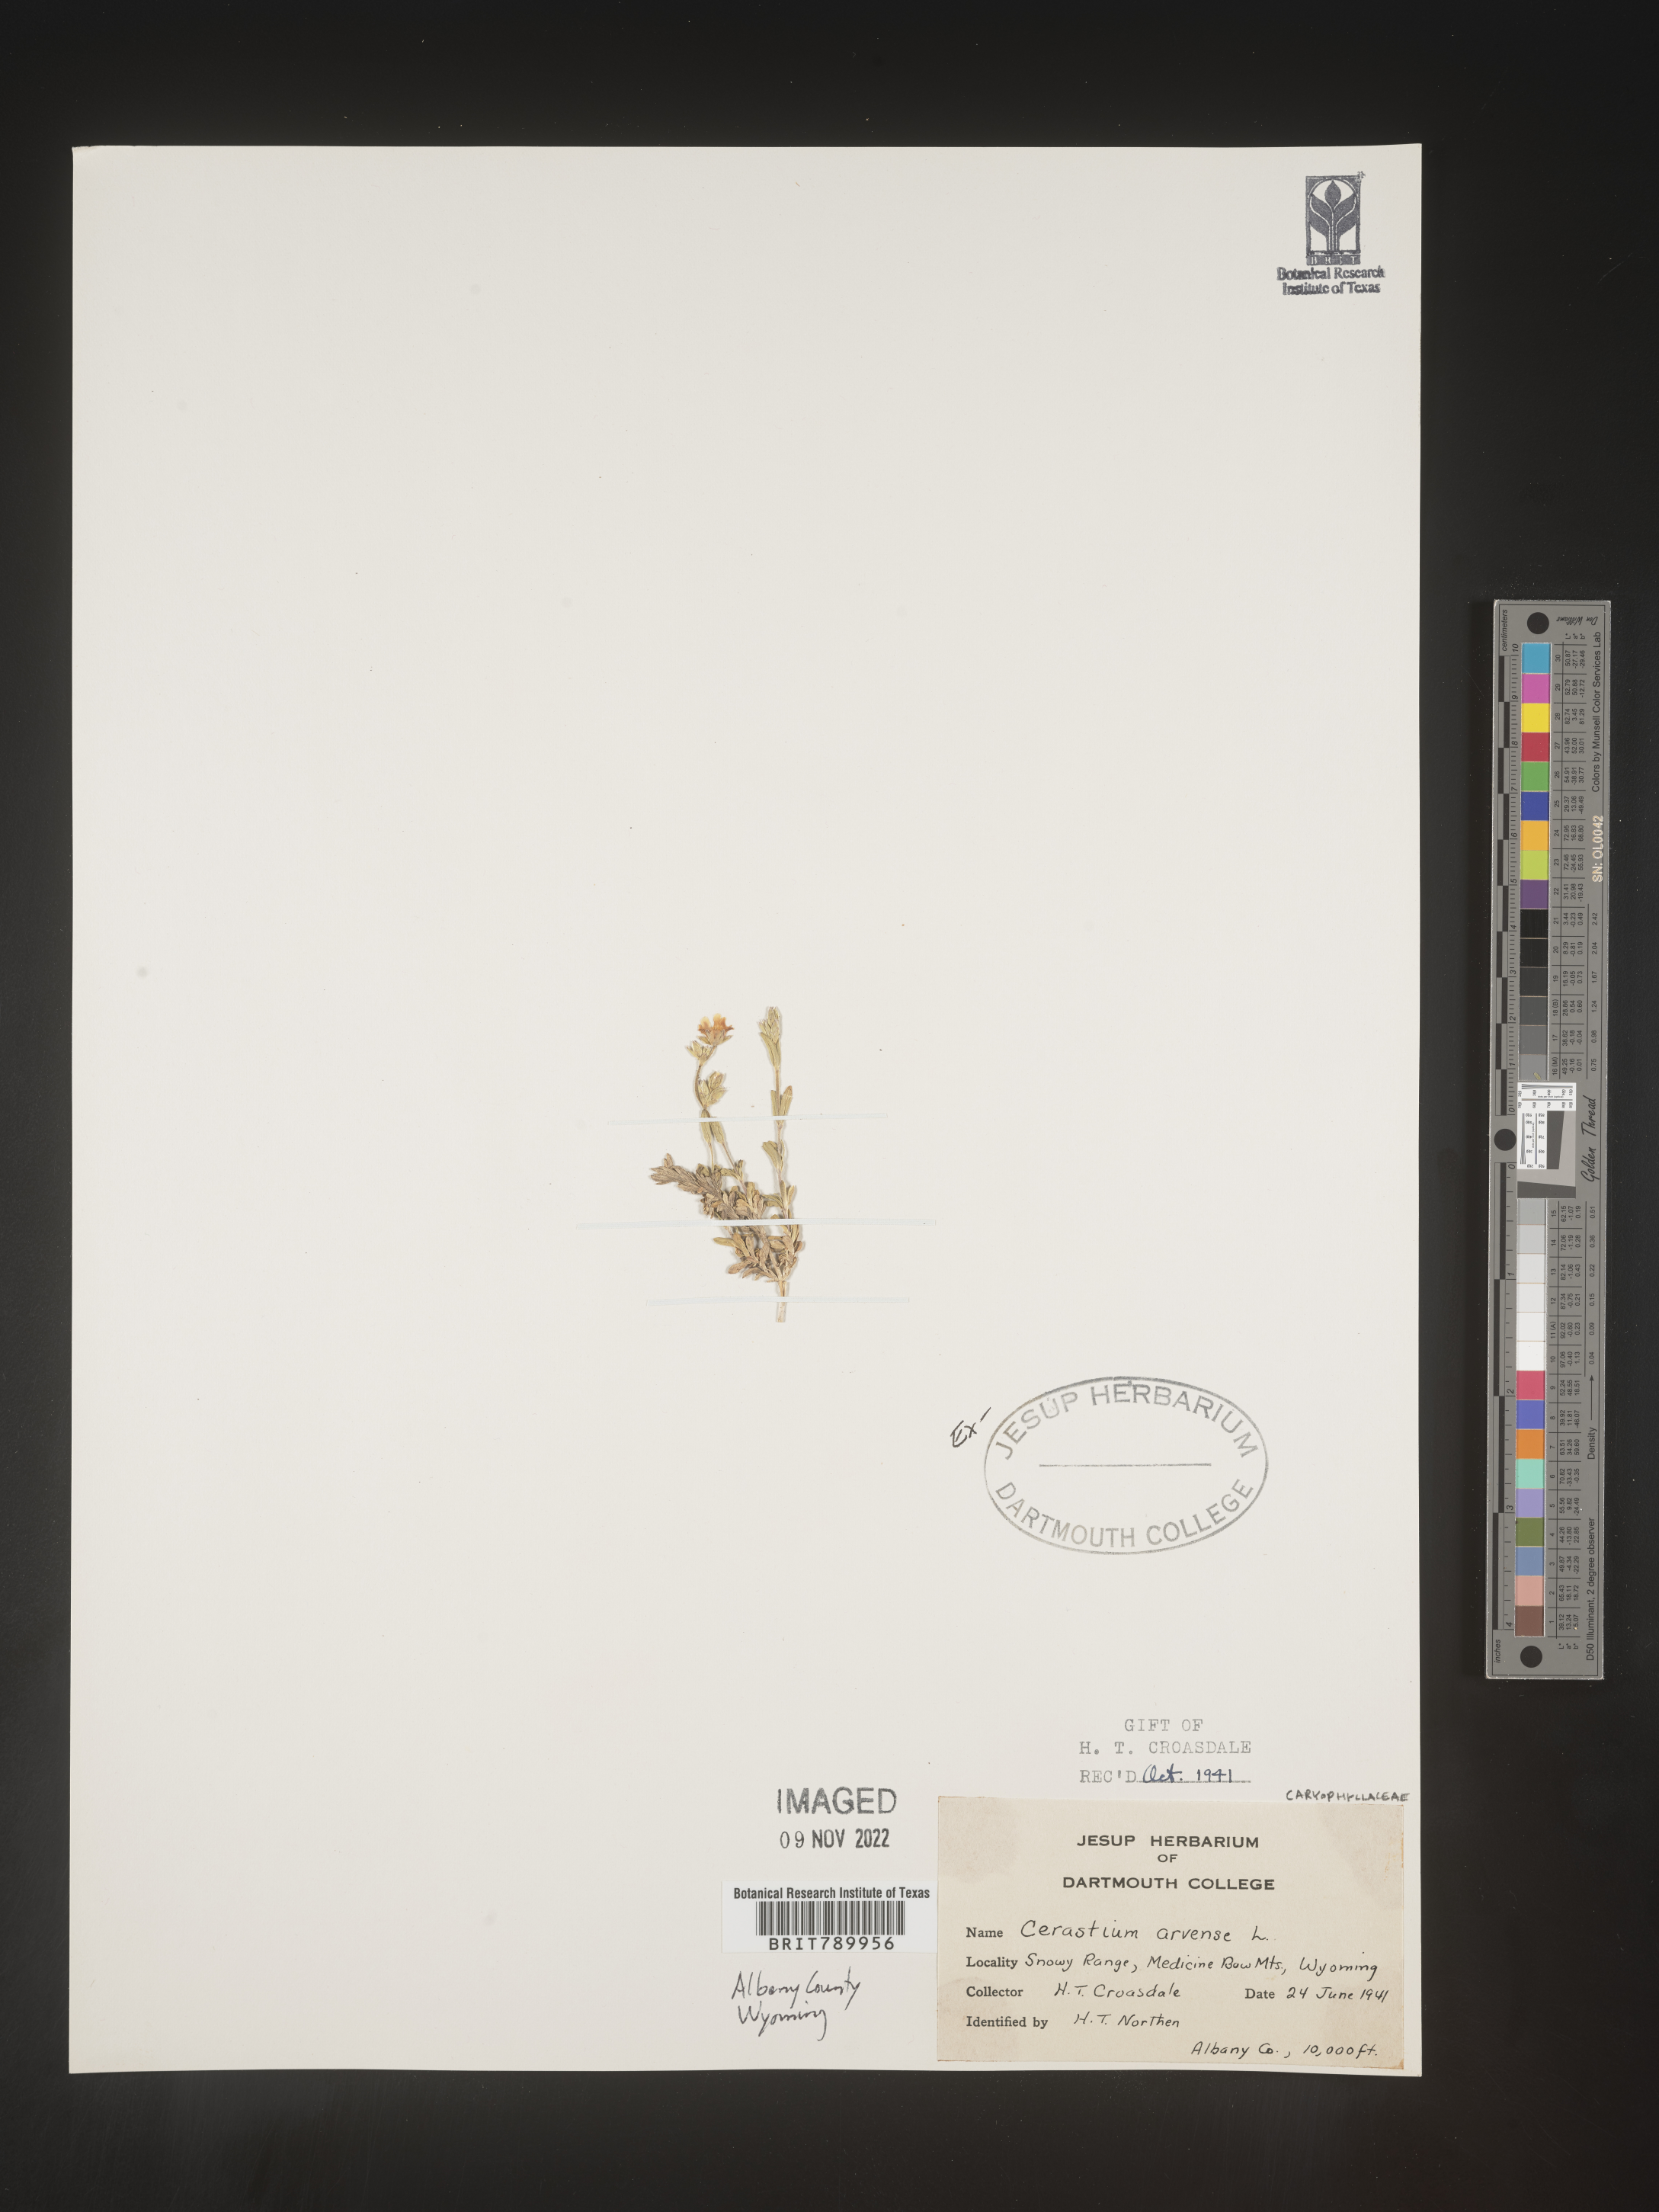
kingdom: Plantae
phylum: Tracheophyta
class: Magnoliopsida
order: Caryophyllales
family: Caryophyllaceae
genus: Cerastium
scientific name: Cerastium arvense
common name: Field mouse-ear
